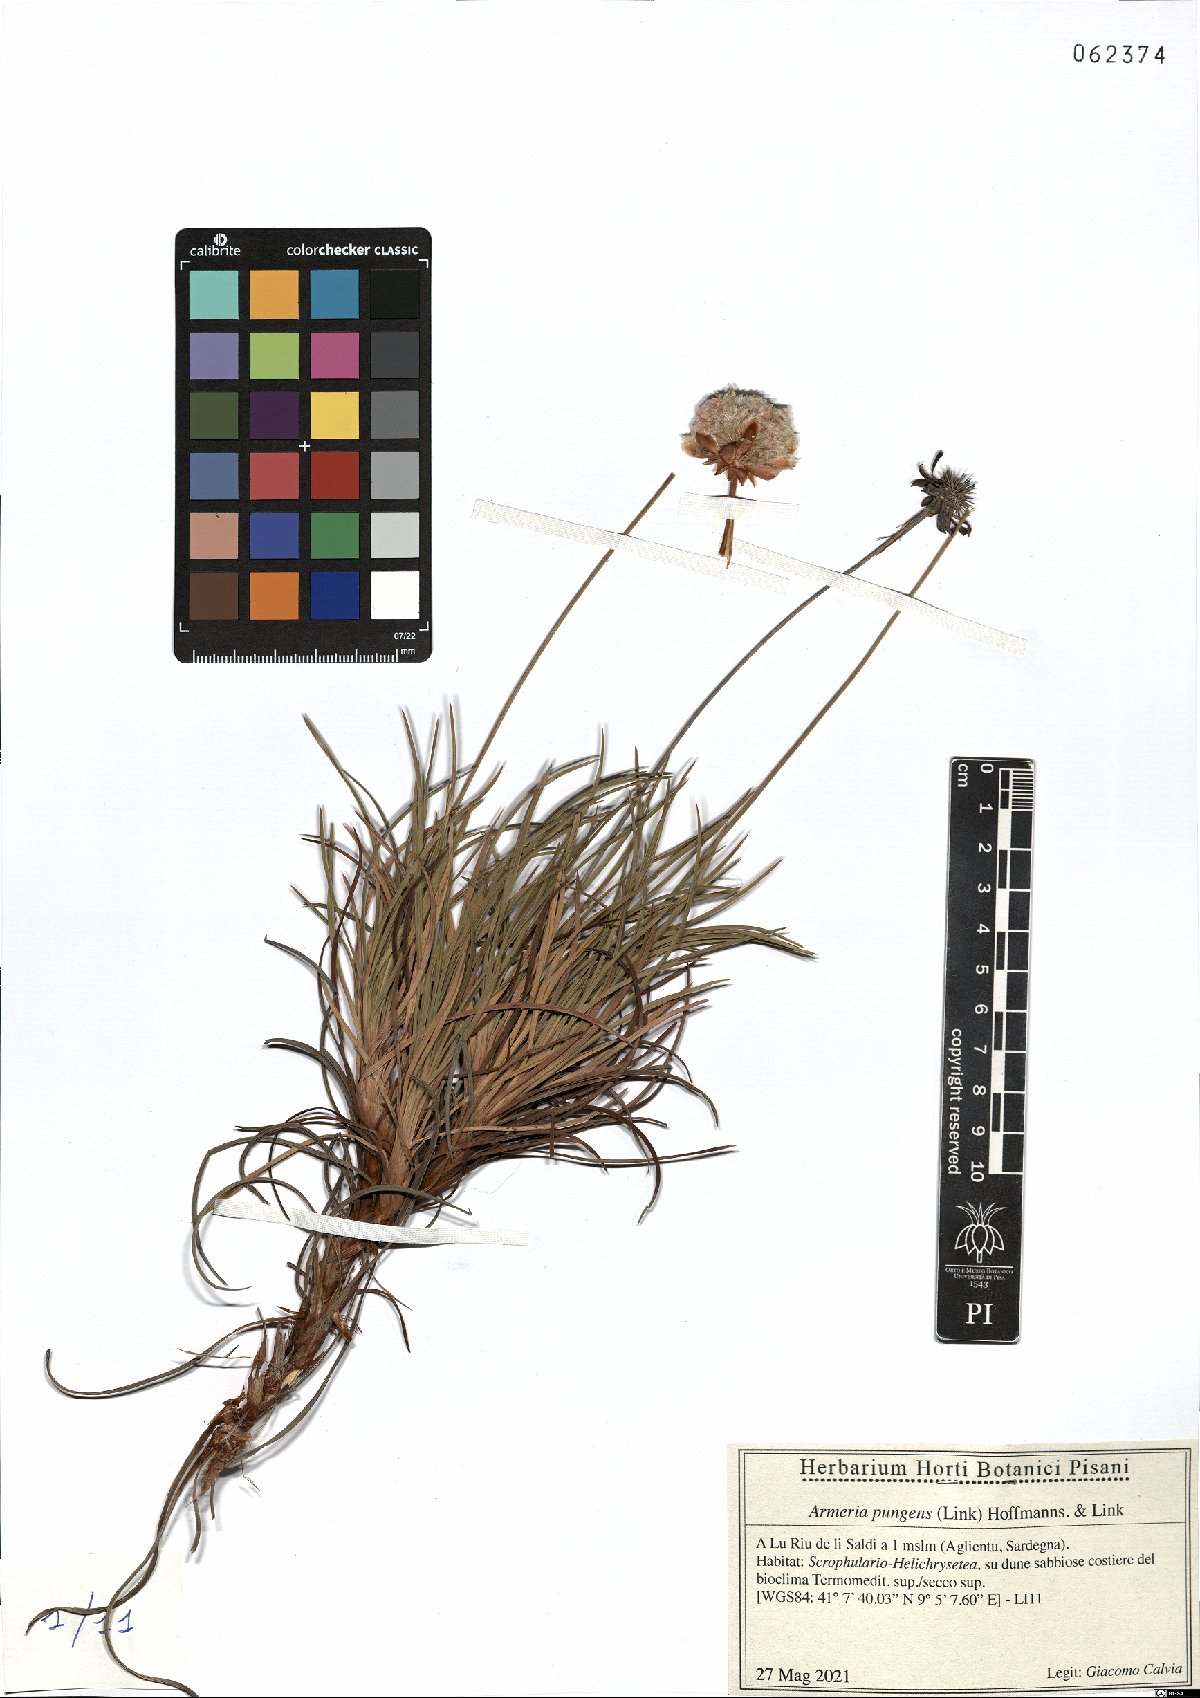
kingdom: Plantae
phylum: Tracheophyta
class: Magnoliopsida
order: Caryophyllales
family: Plumbaginaceae
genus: Armeria
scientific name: Armeria pungens
